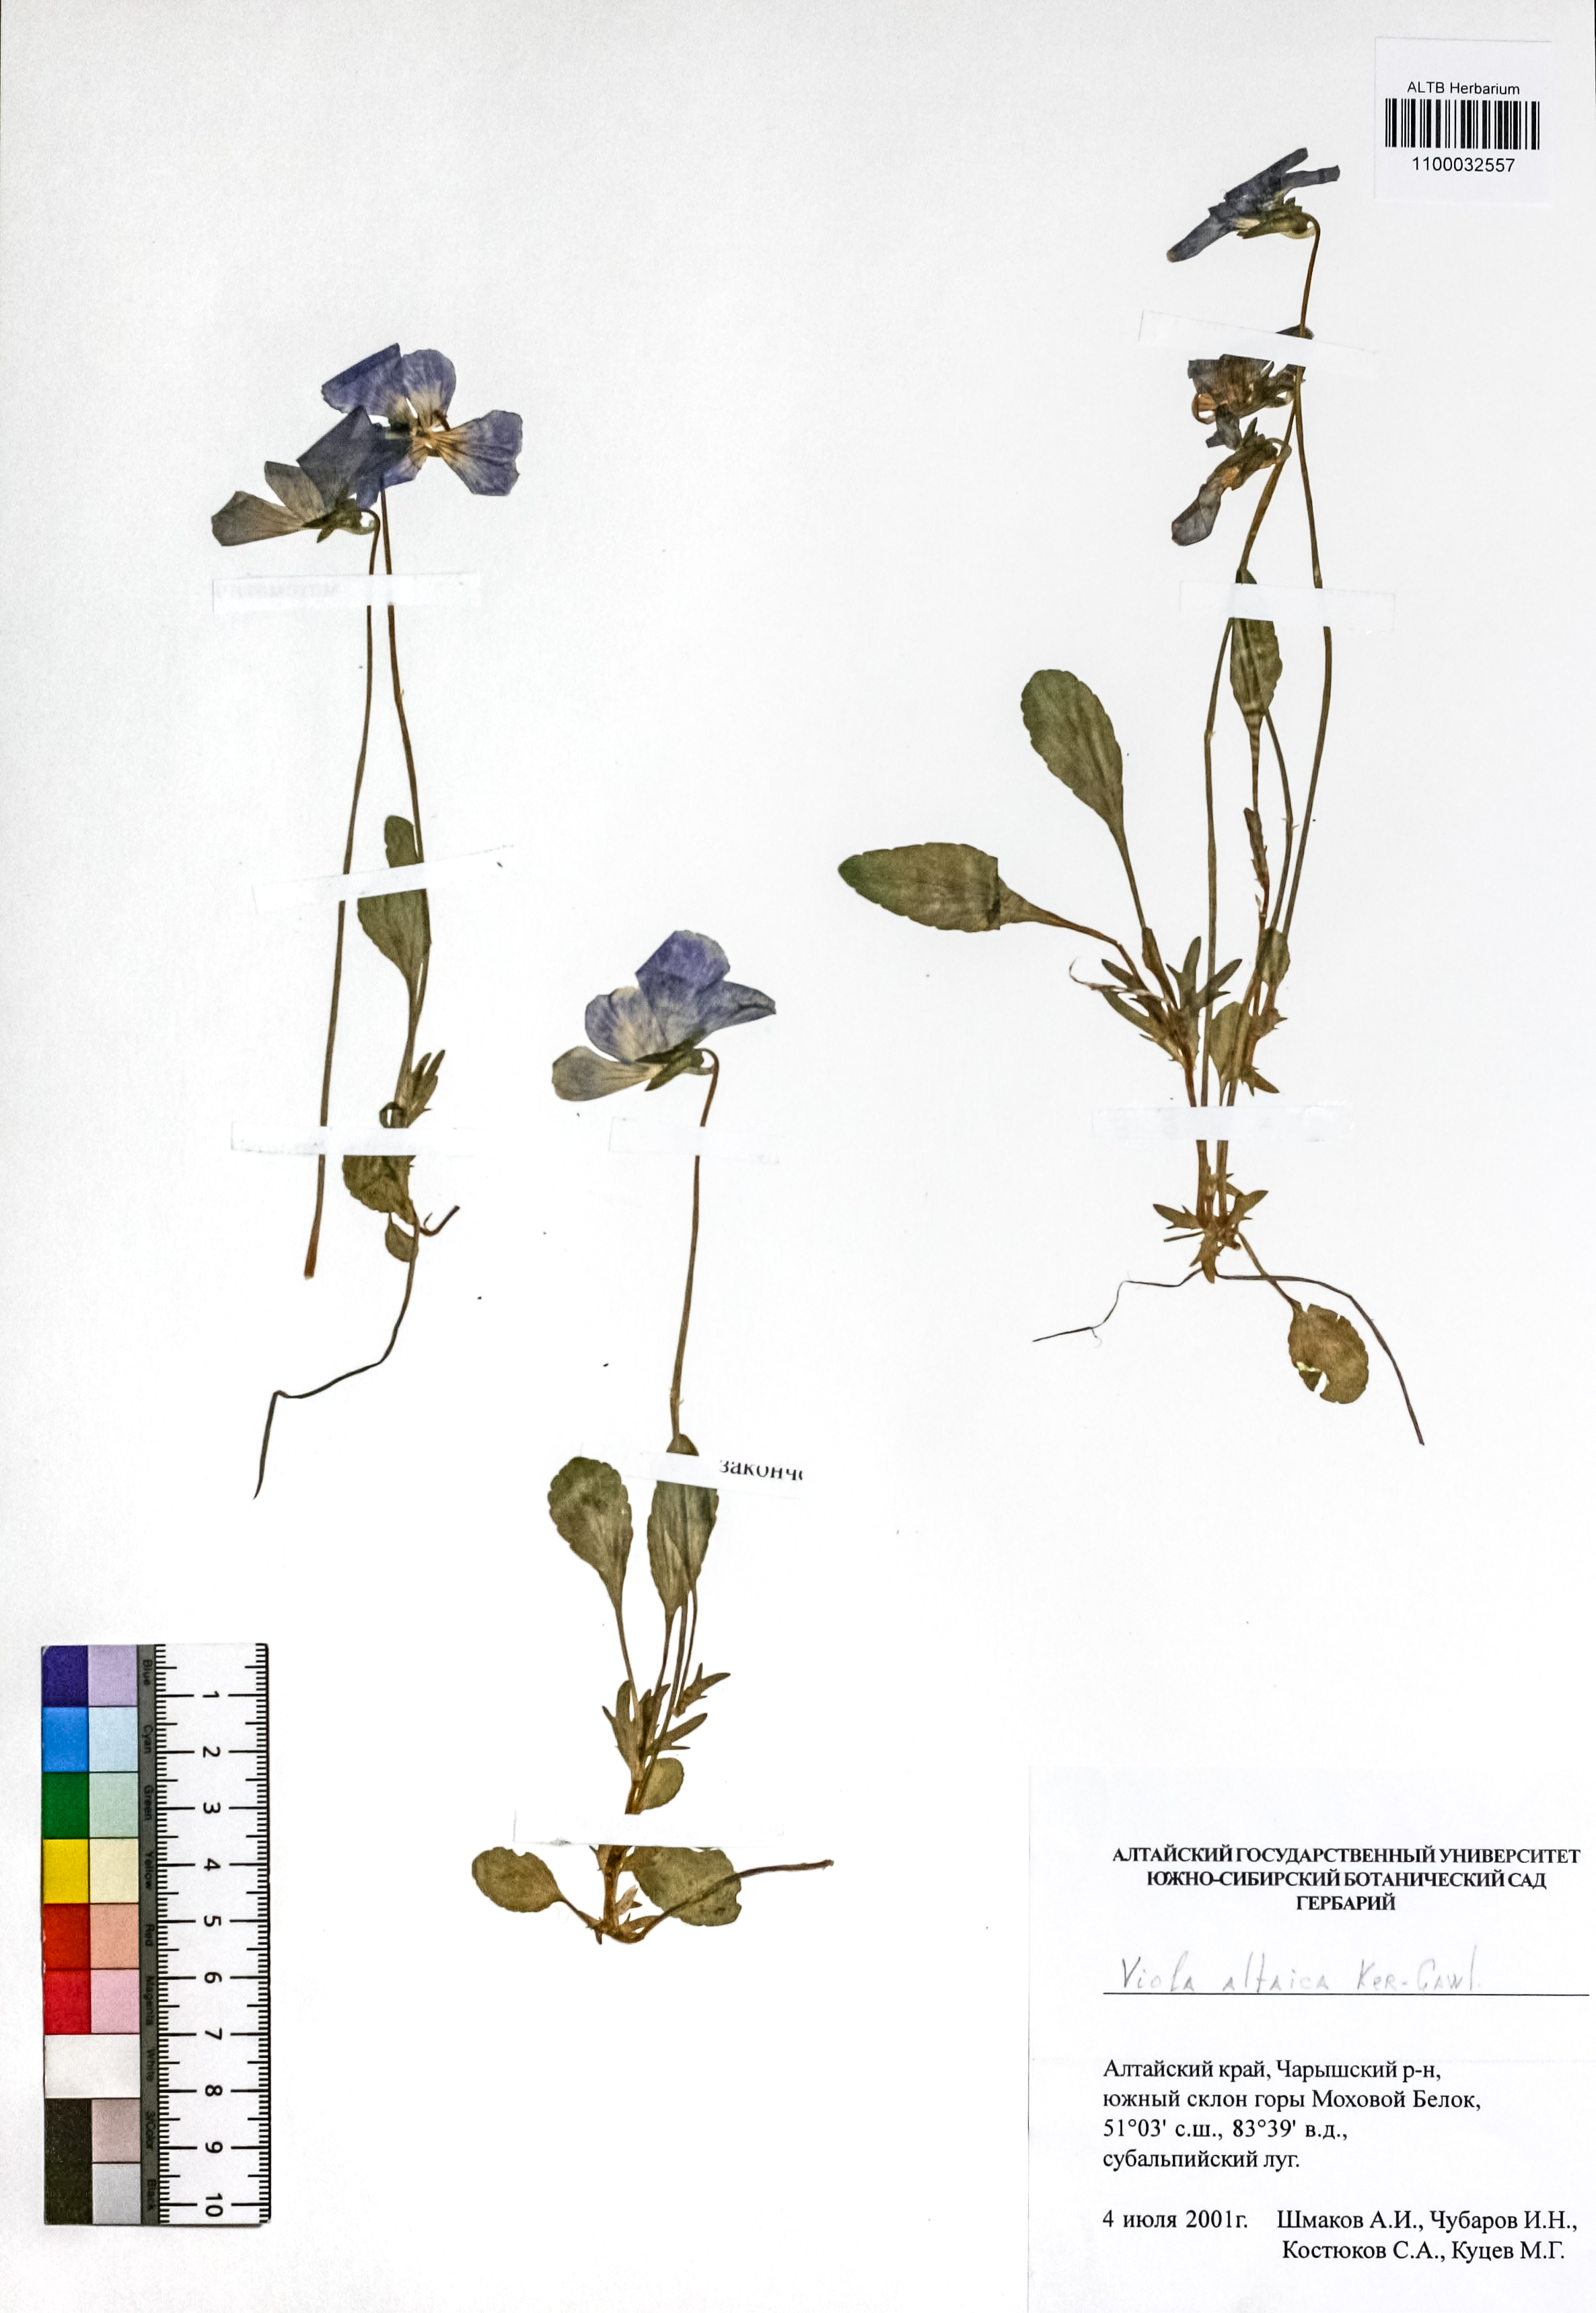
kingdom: Plantae
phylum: Tracheophyta
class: Magnoliopsida
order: Malpighiales
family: Violaceae
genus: Viola
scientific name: Viola altaica
